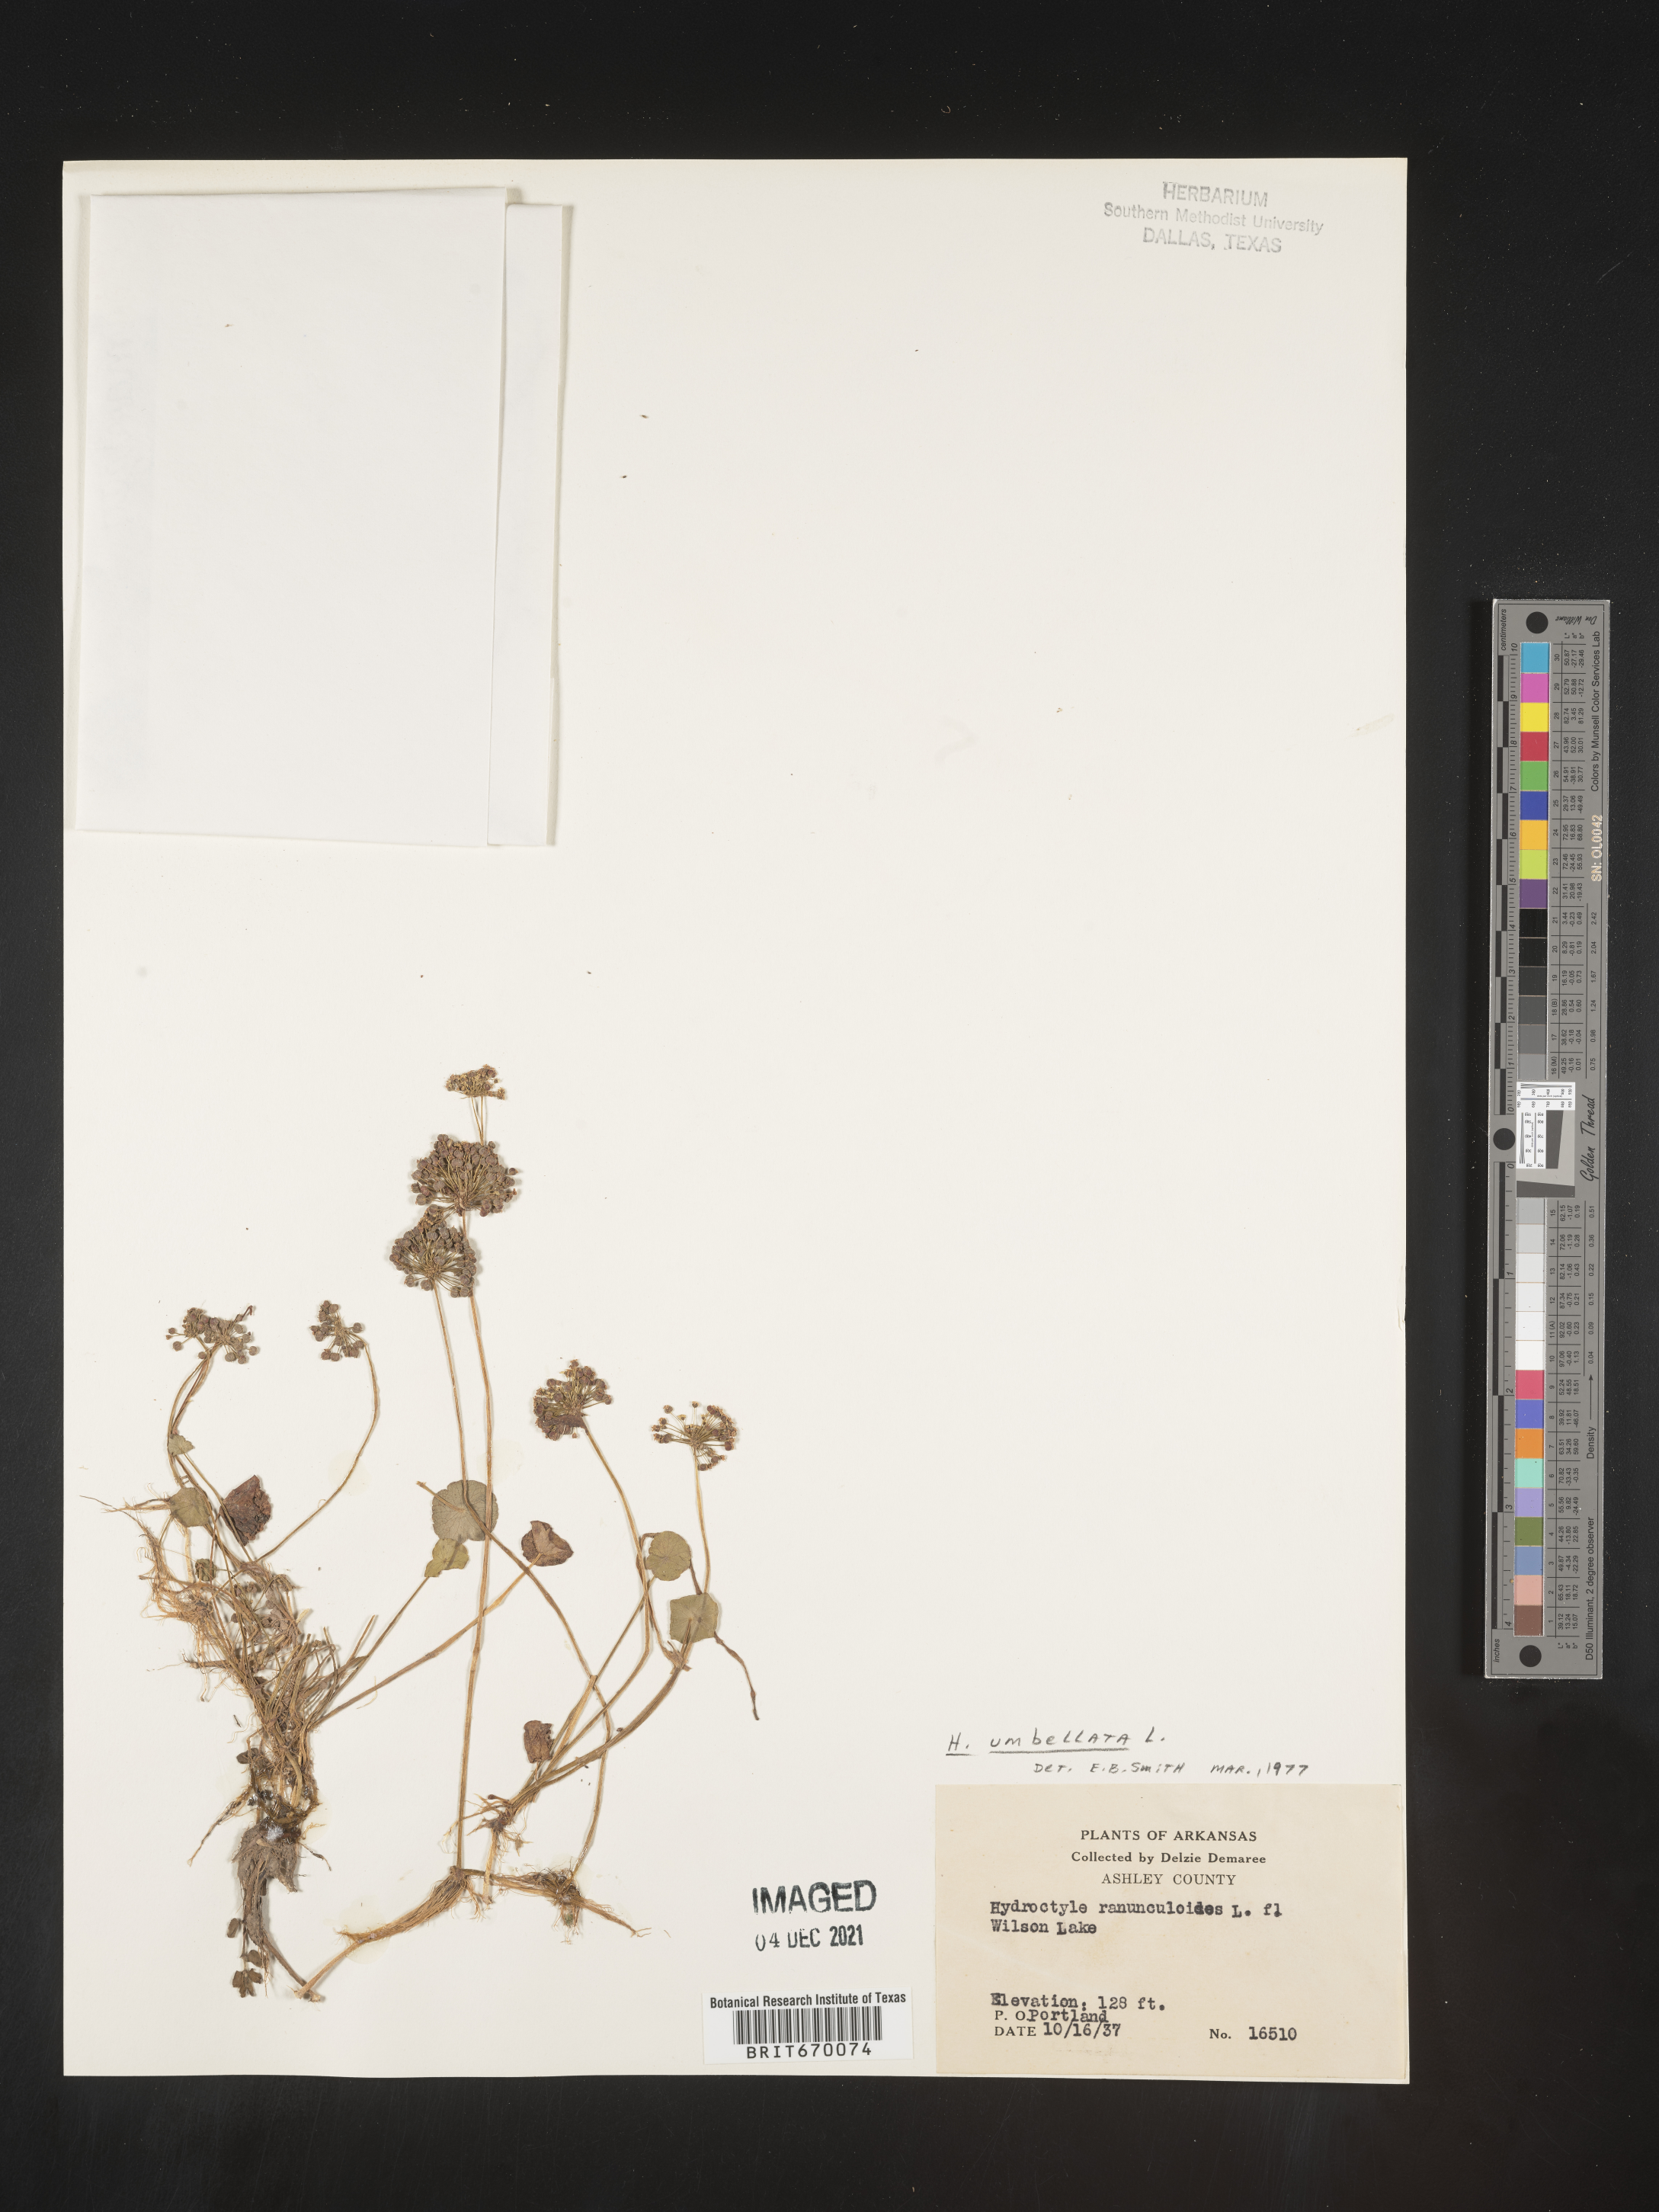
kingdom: Plantae
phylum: Tracheophyta
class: Magnoliopsida
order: Apiales
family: Araliaceae
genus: Hydrocotyle
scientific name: Hydrocotyle umbellata
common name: Water pennywort
